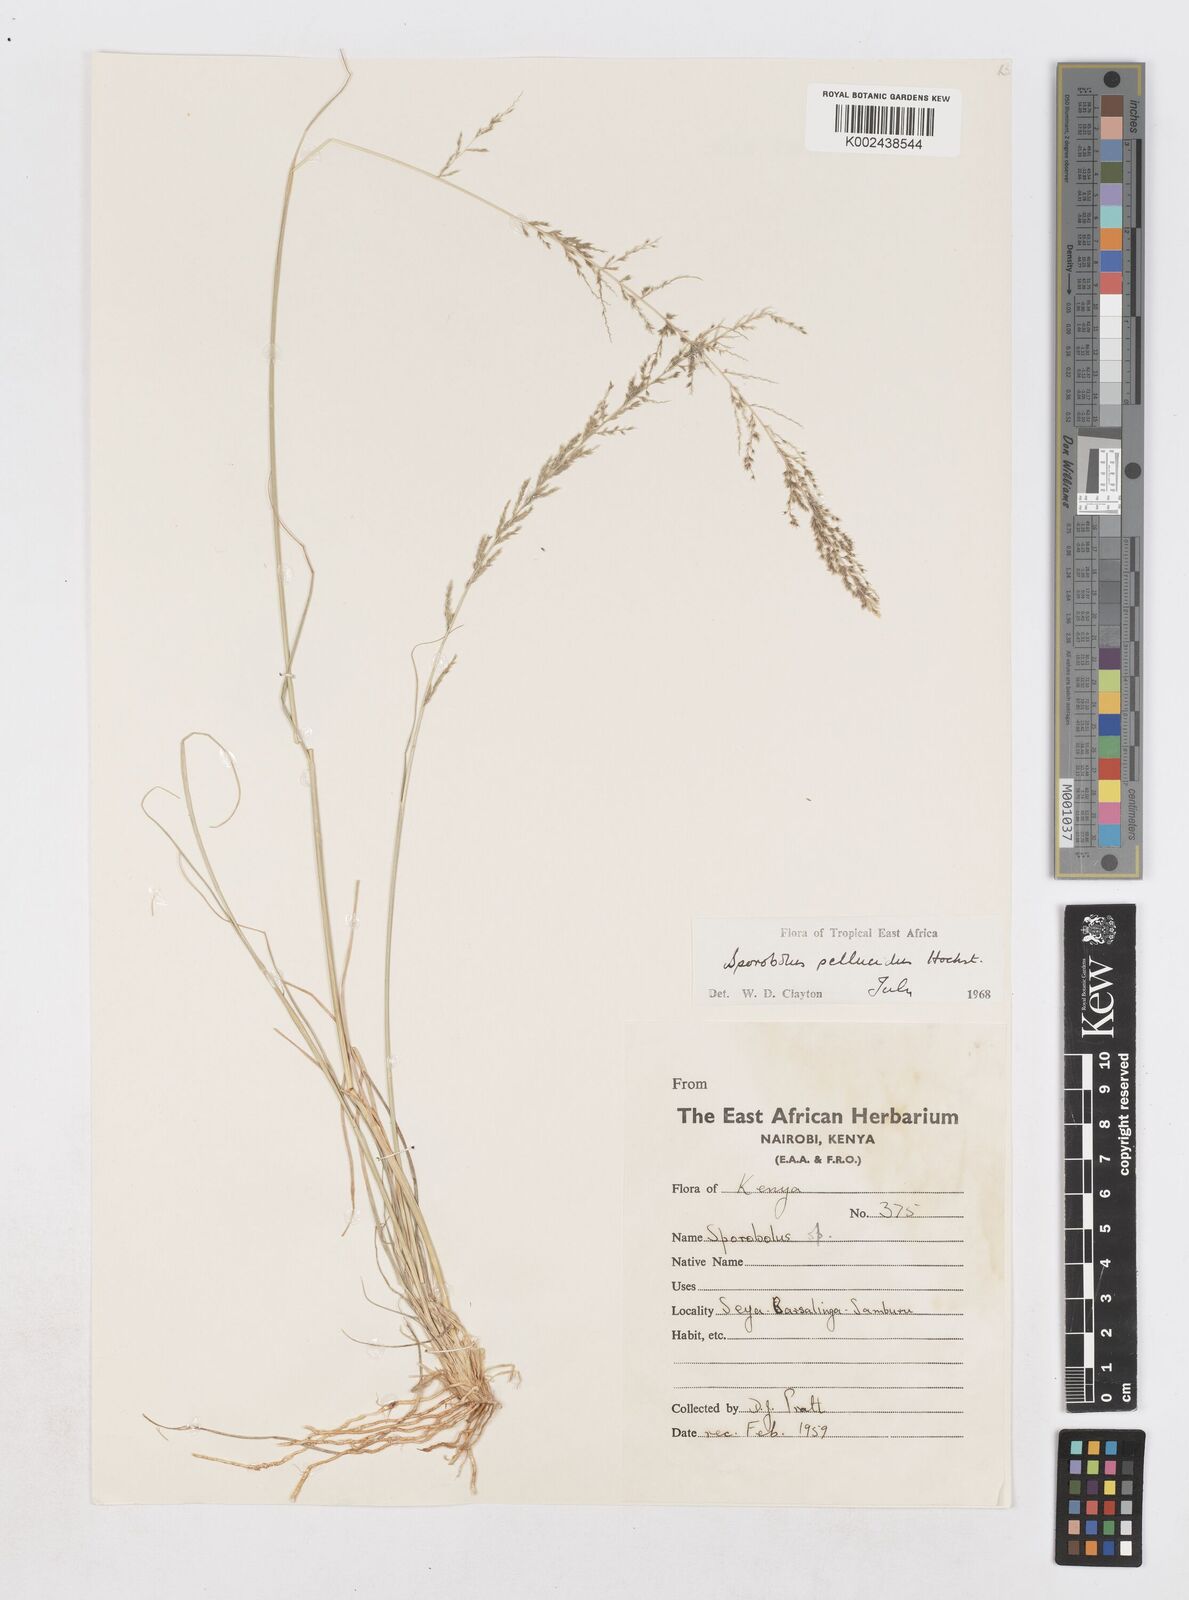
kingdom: Plantae
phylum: Tracheophyta
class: Liliopsida
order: Poales
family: Poaceae
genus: Sporobolus
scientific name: Sporobolus pellucidus
